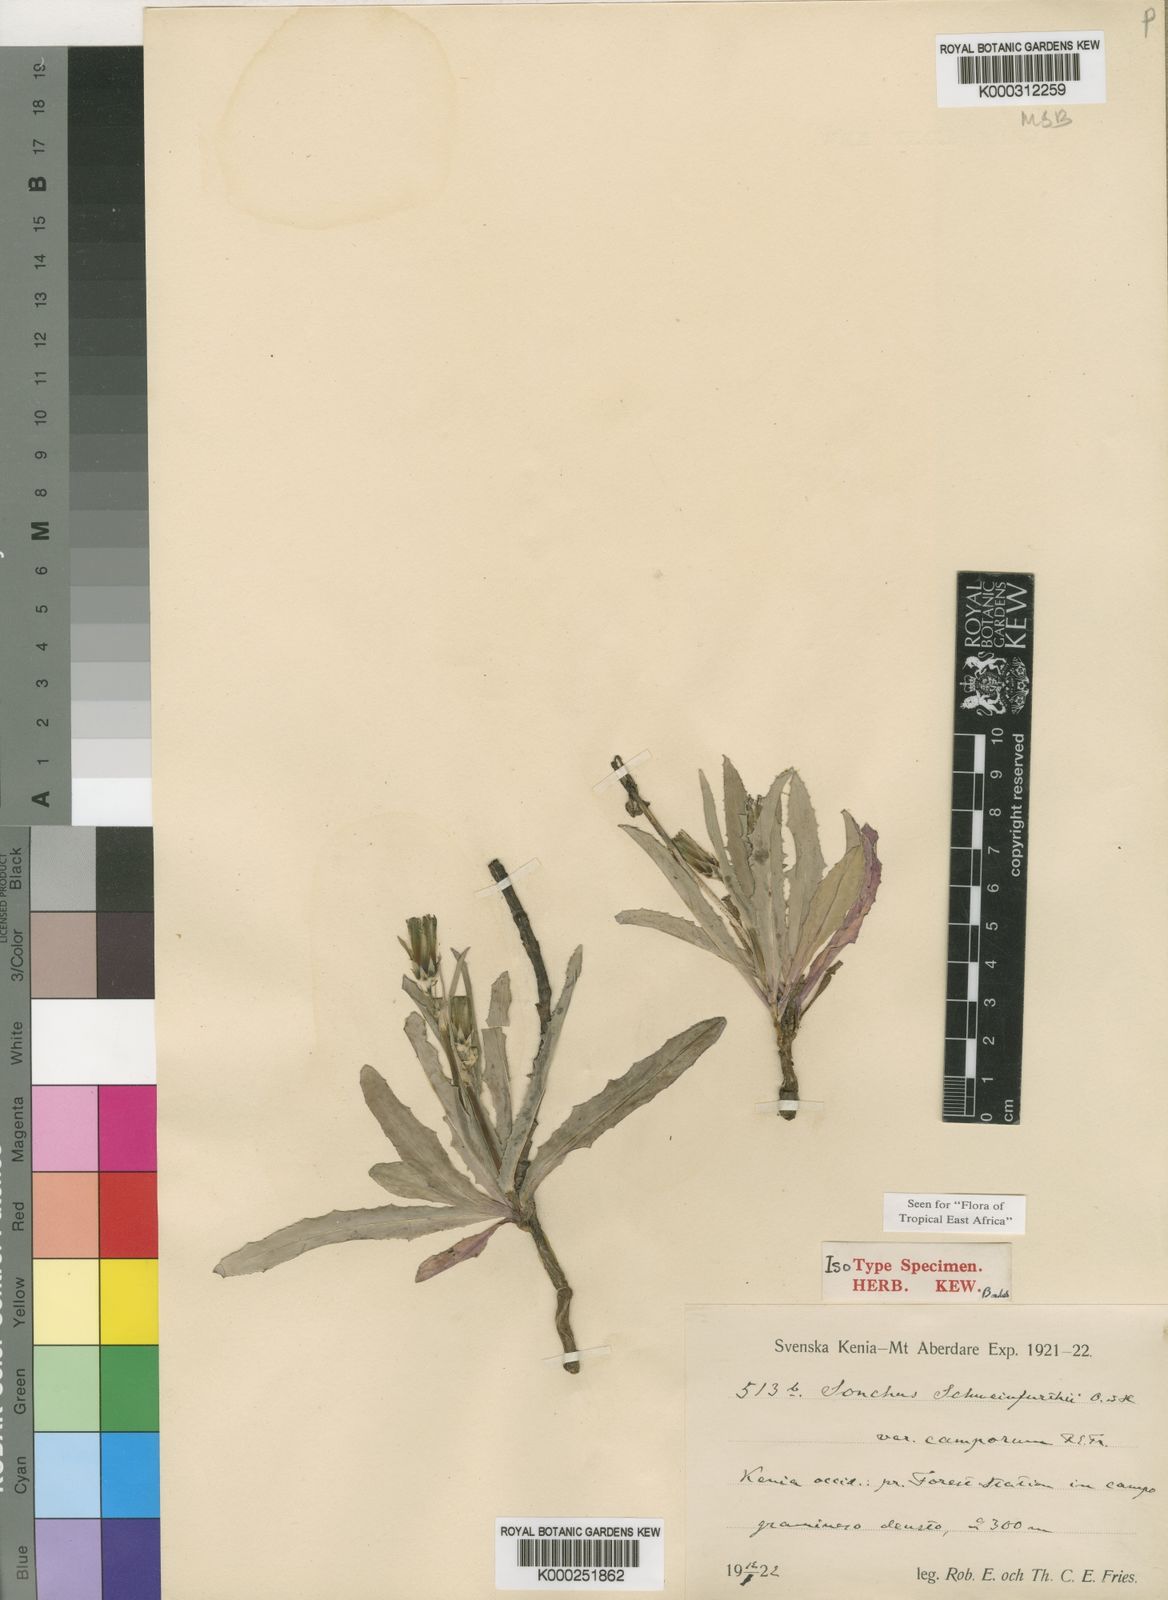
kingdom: Plantae
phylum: Tracheophyta
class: Magnoliopsida
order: Asterales
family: Asteraceae
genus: Sonchus
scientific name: Sonchus camporum
